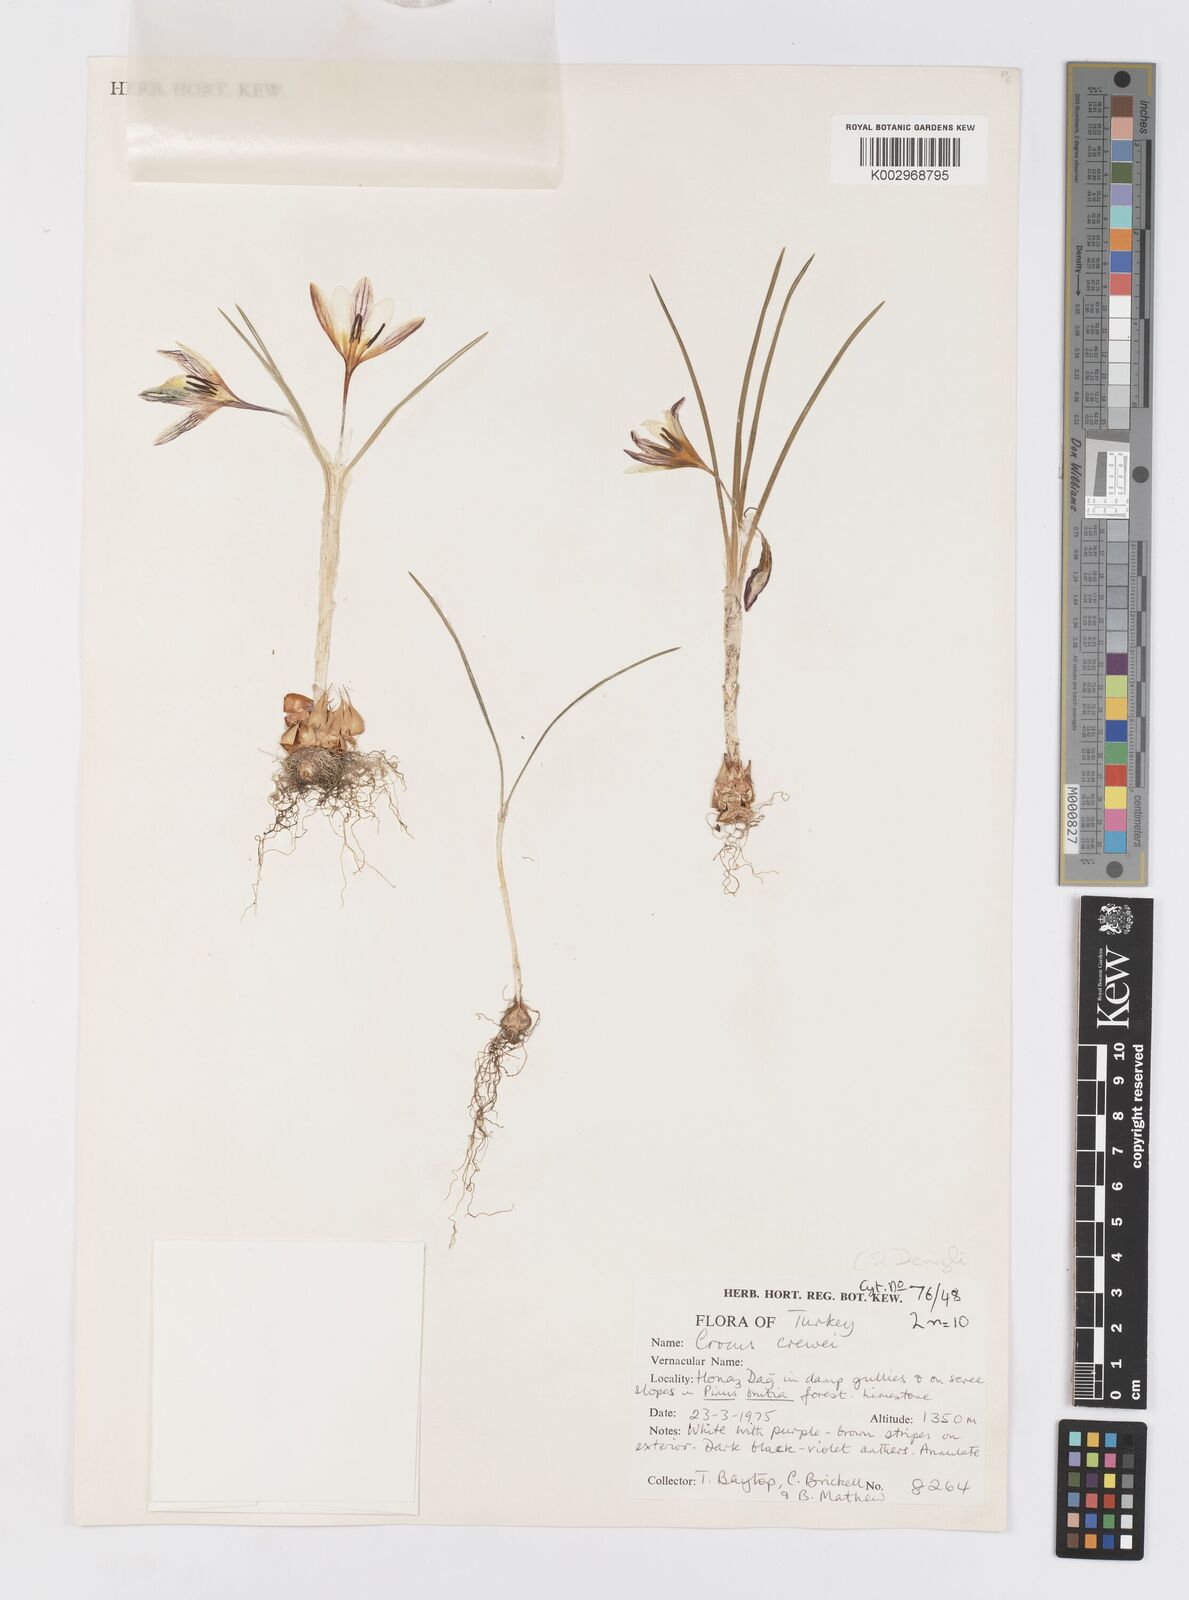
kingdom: Plantae
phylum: Tracheophyta
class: Liliopsida
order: Asparagales
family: Iridaceae
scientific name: Iridaceae
